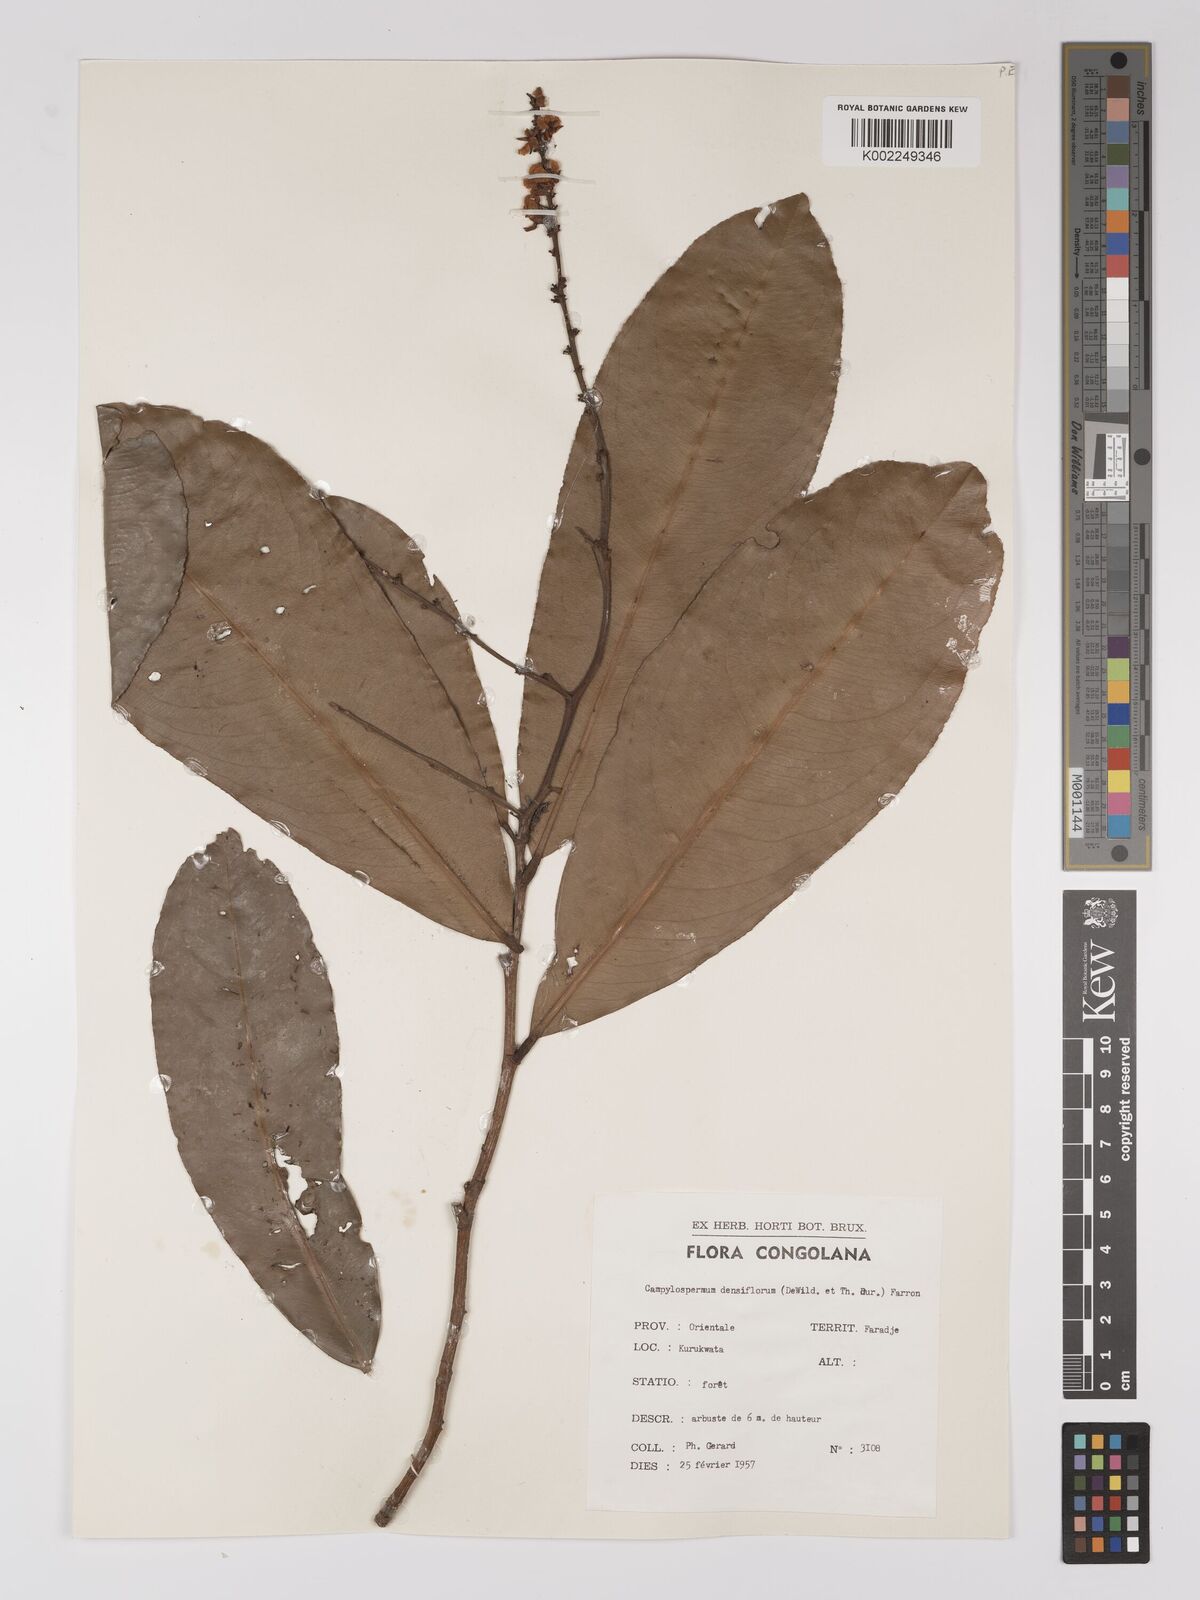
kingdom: Plantae
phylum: Tracheophyta
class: Magnoliopsida
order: Malpighiales
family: Ochnaceae
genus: Gomphia
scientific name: Gomphia densiflora
